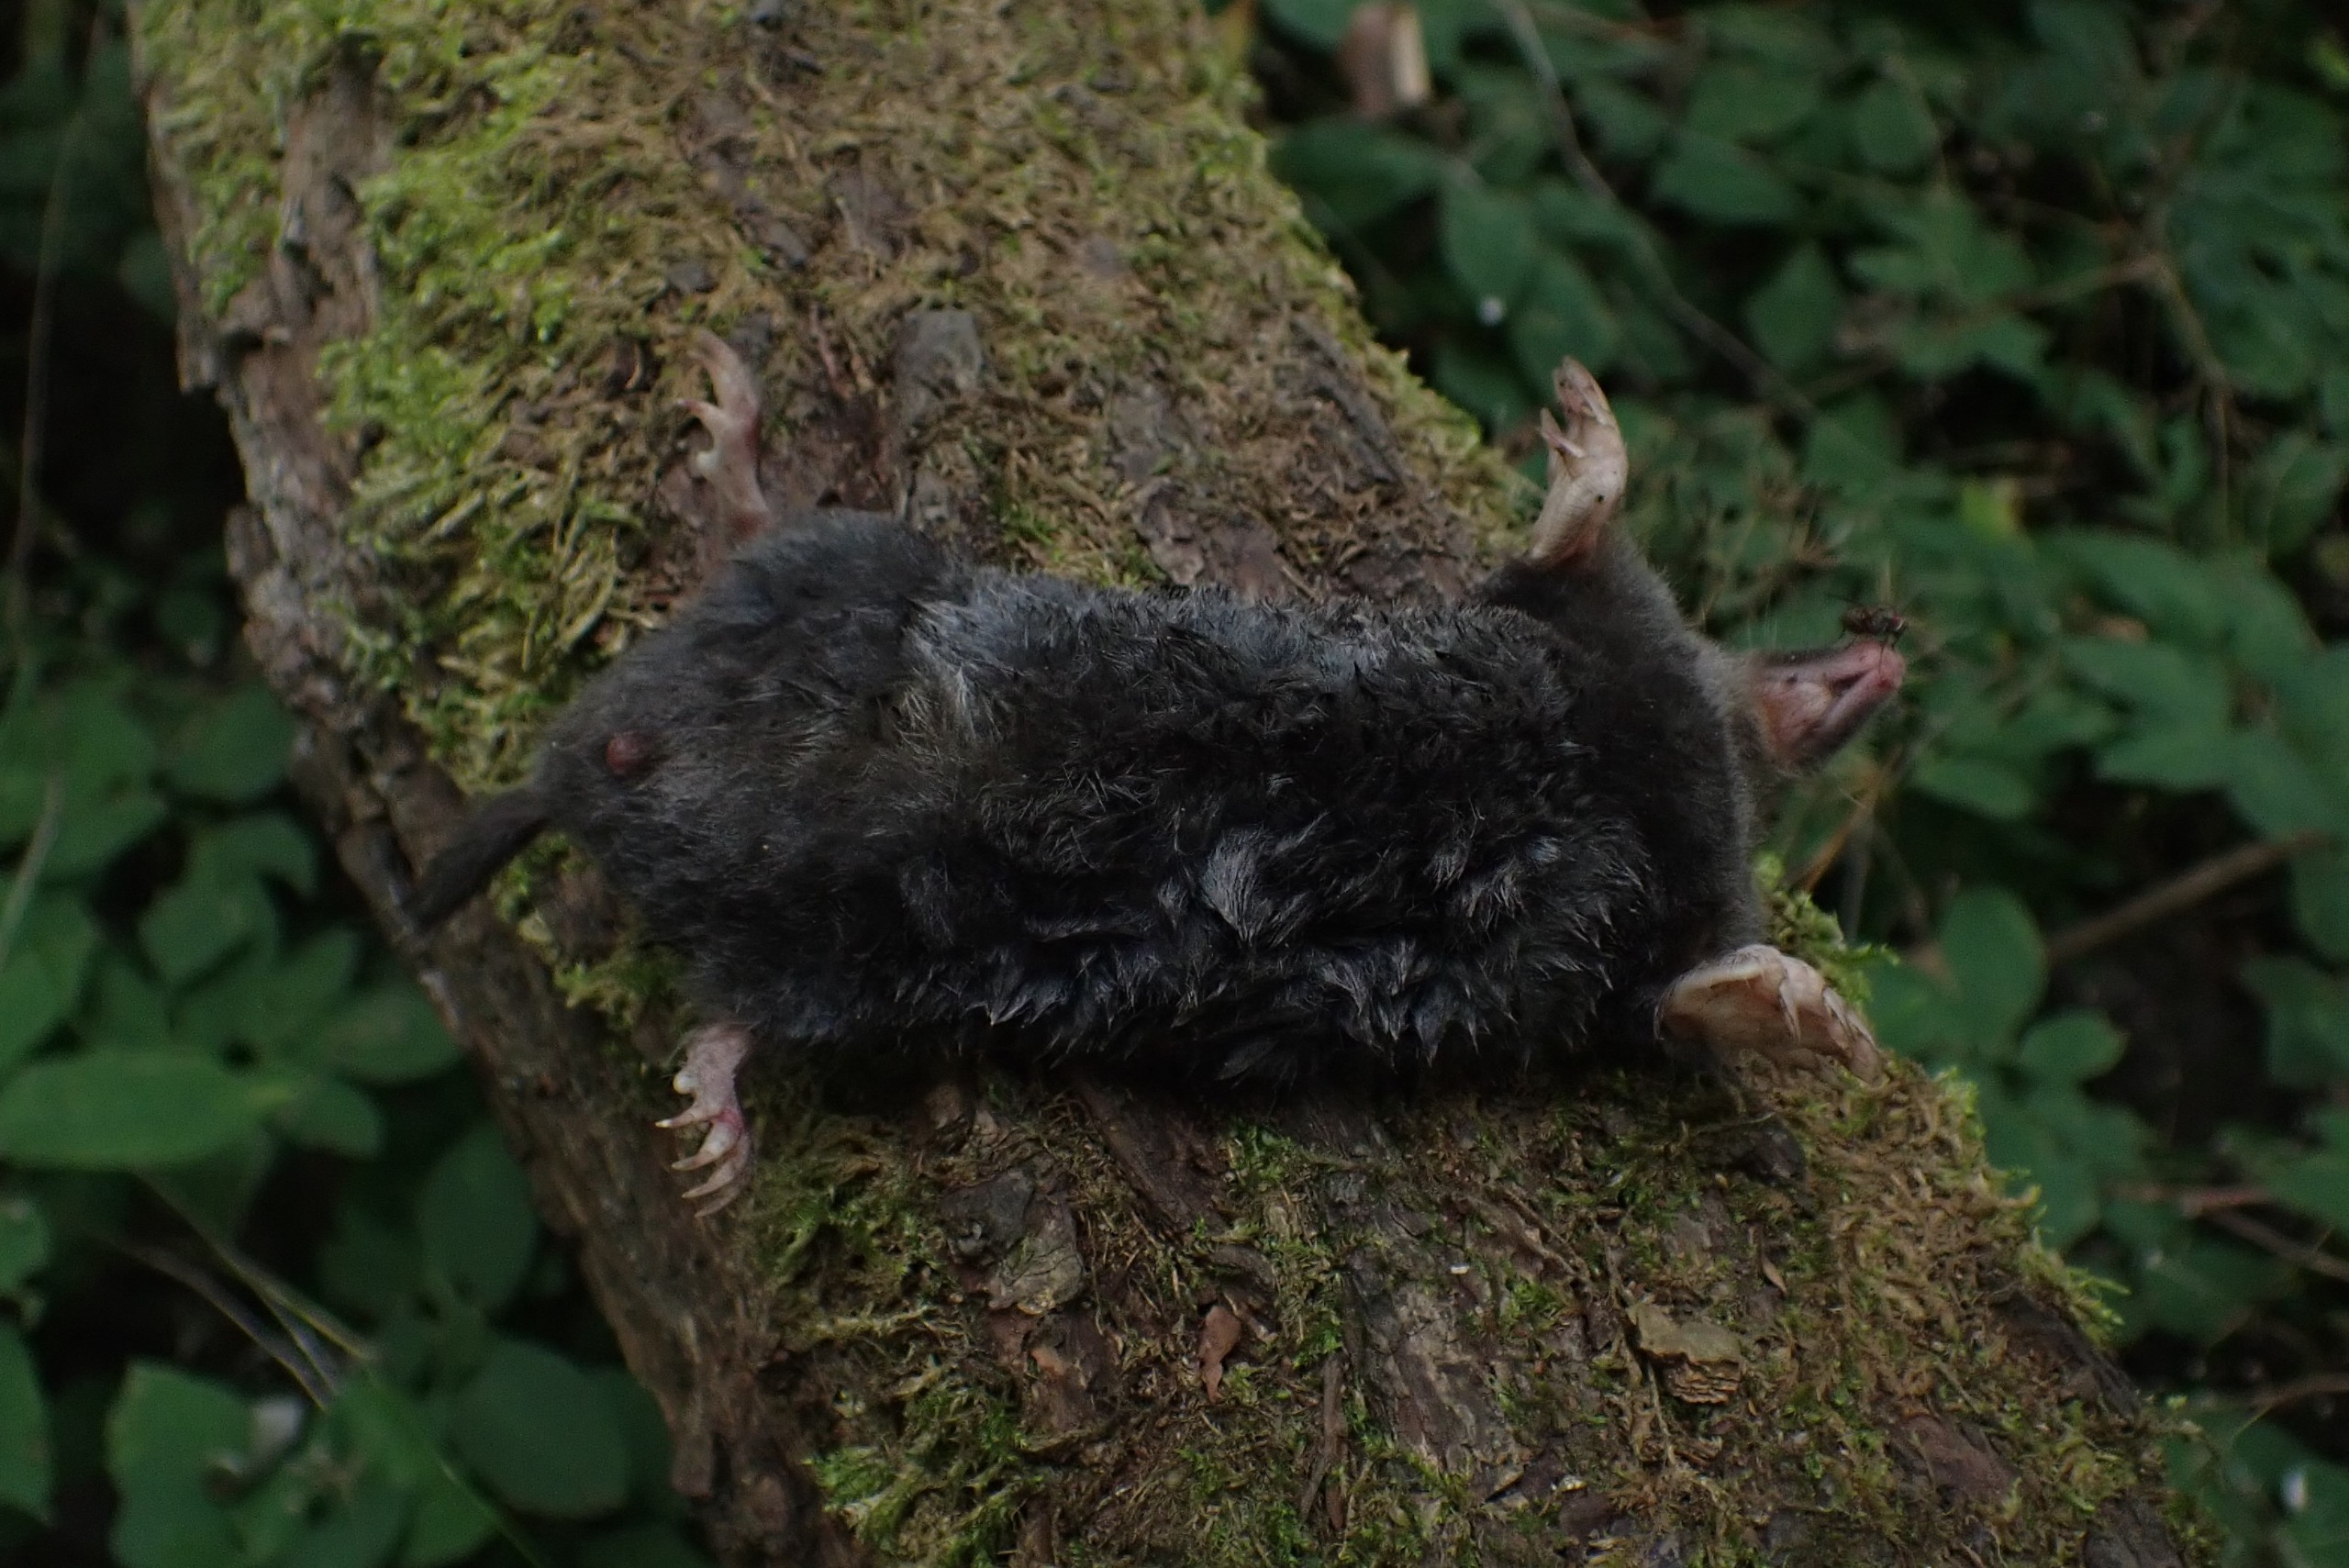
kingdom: Animalia
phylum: Chordata
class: Mammalia
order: Soricomorpha
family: Talpidae
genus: Talpa
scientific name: Talpa europaea
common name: Muldvarp
